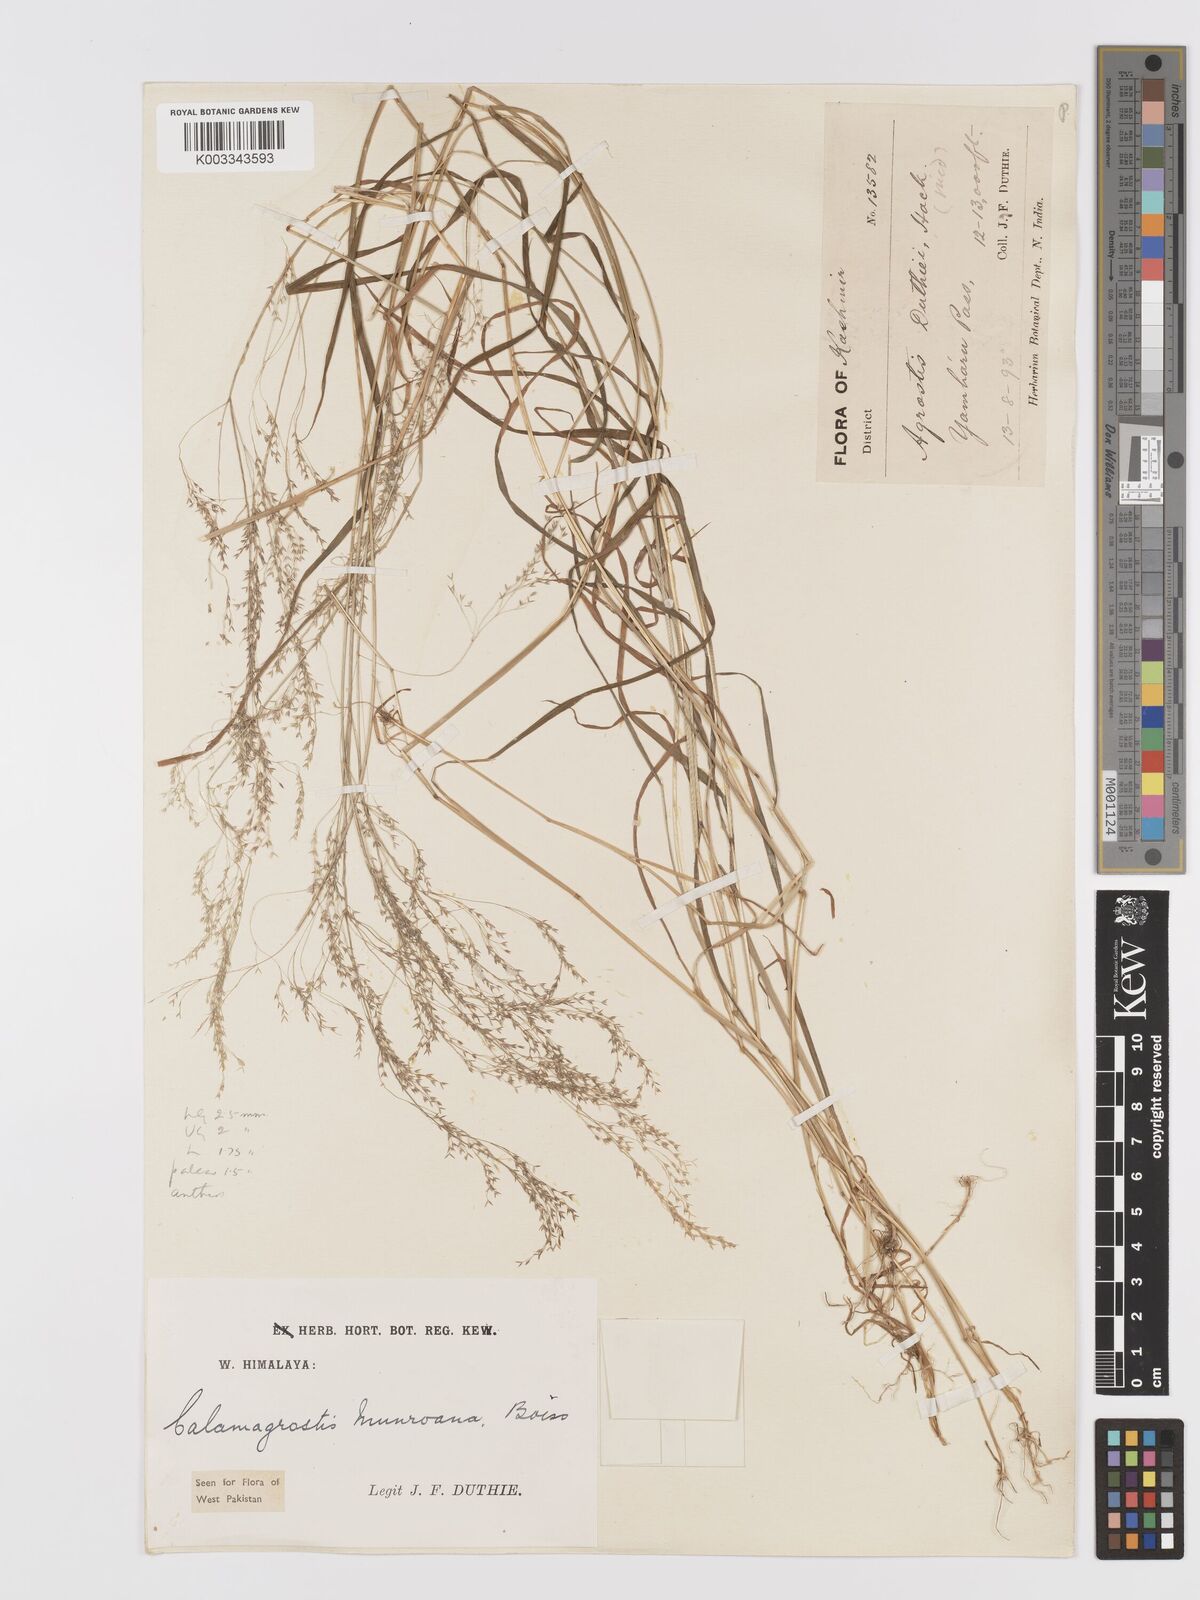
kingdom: Plantae
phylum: Tracheophyta
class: Liliopsida
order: Poales
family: Poaceae
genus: Agrostis
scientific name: Agrostis munroana
